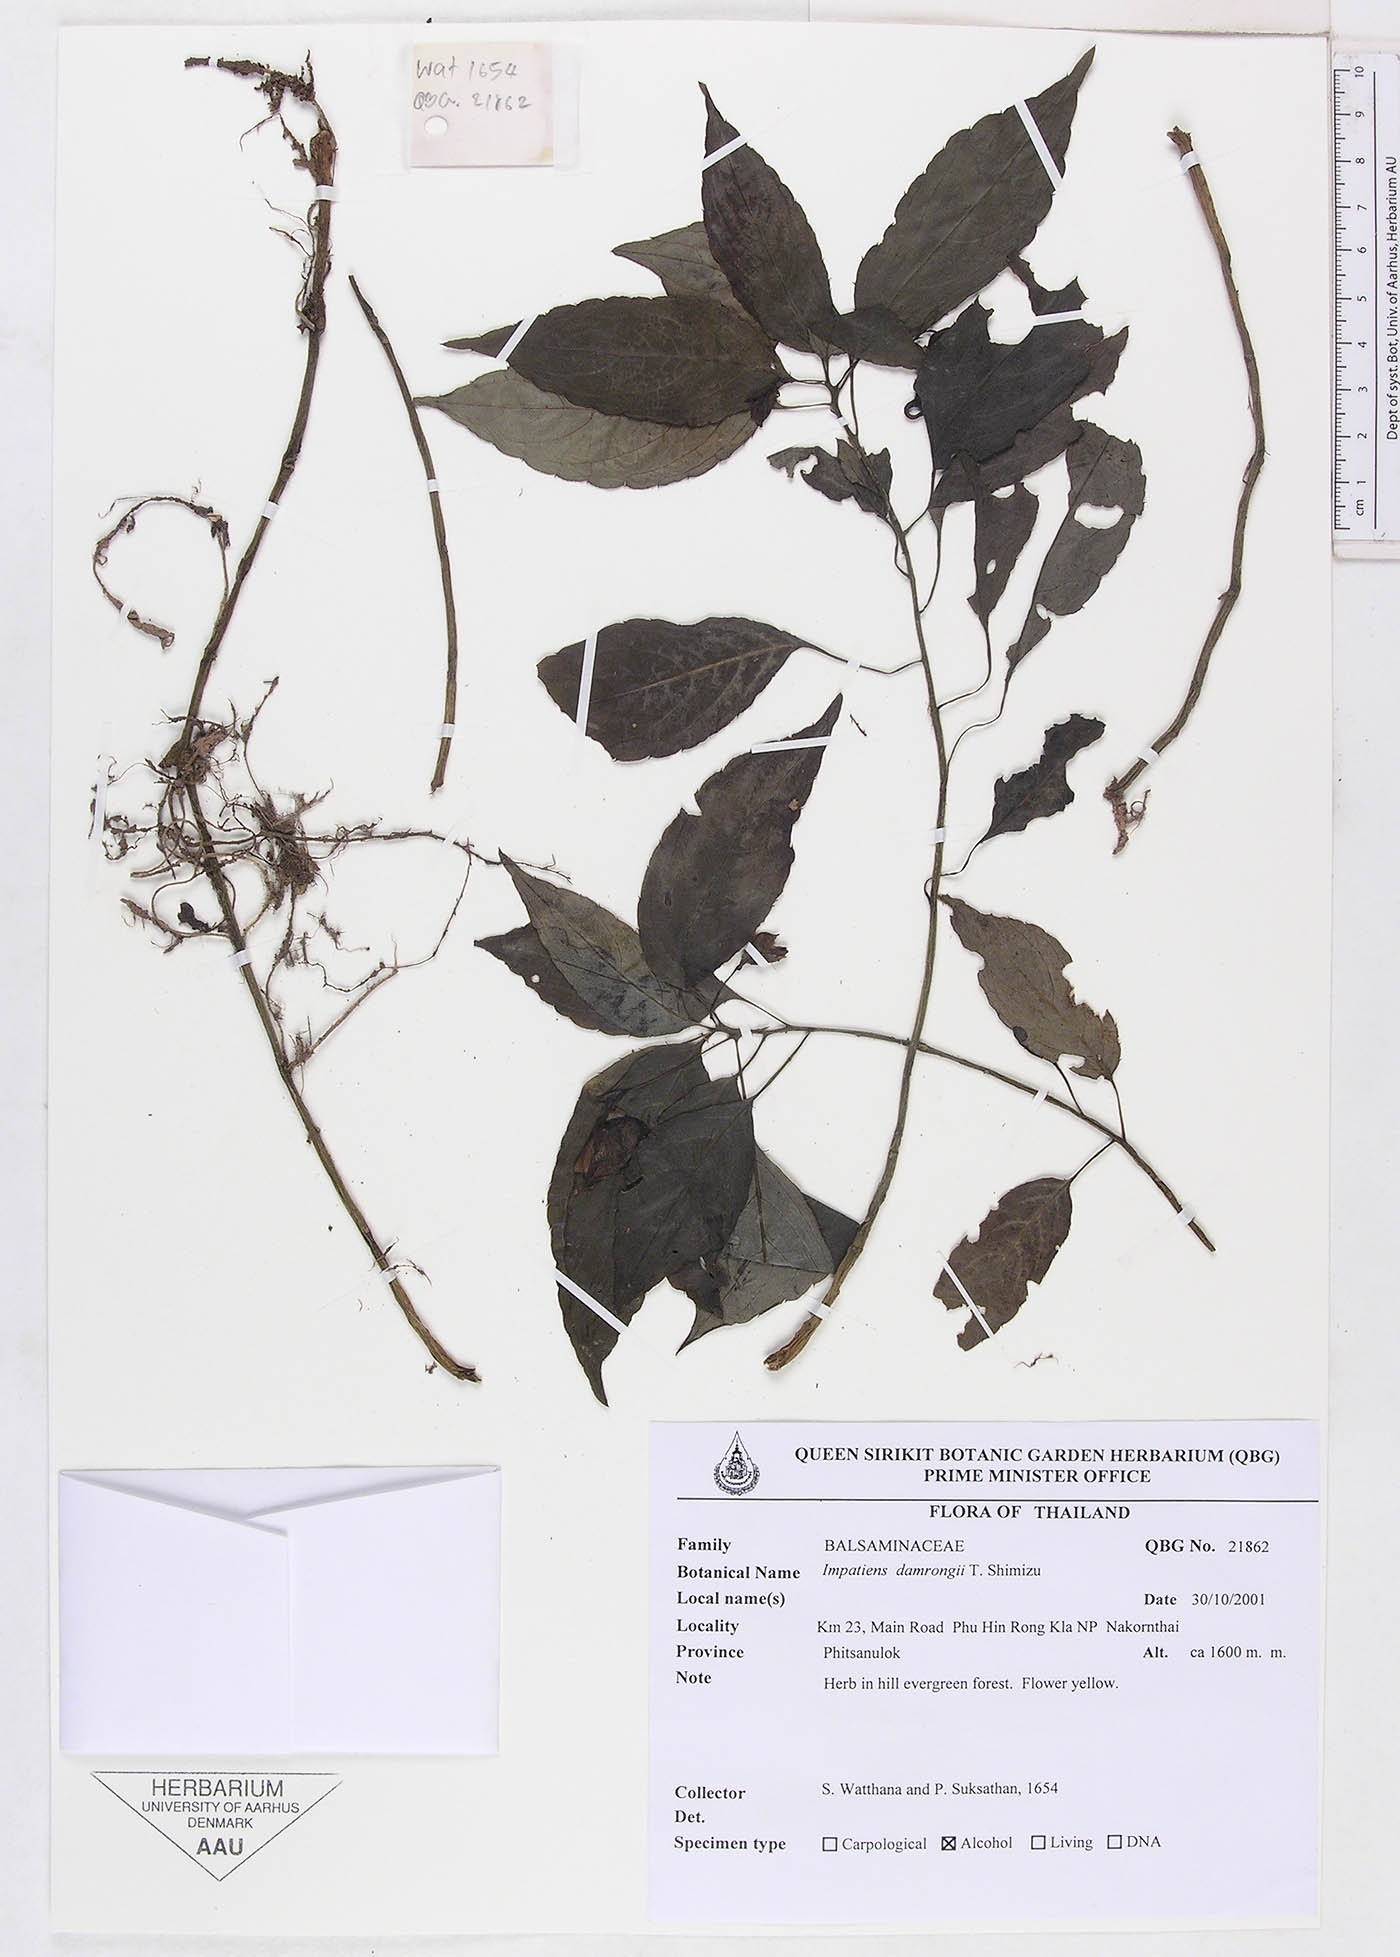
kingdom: Plantae
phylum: Tracheophyta
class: Magnoliopsida
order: Ericales
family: Balsaminaceae
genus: Impatiens
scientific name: Impatiens damrongii
